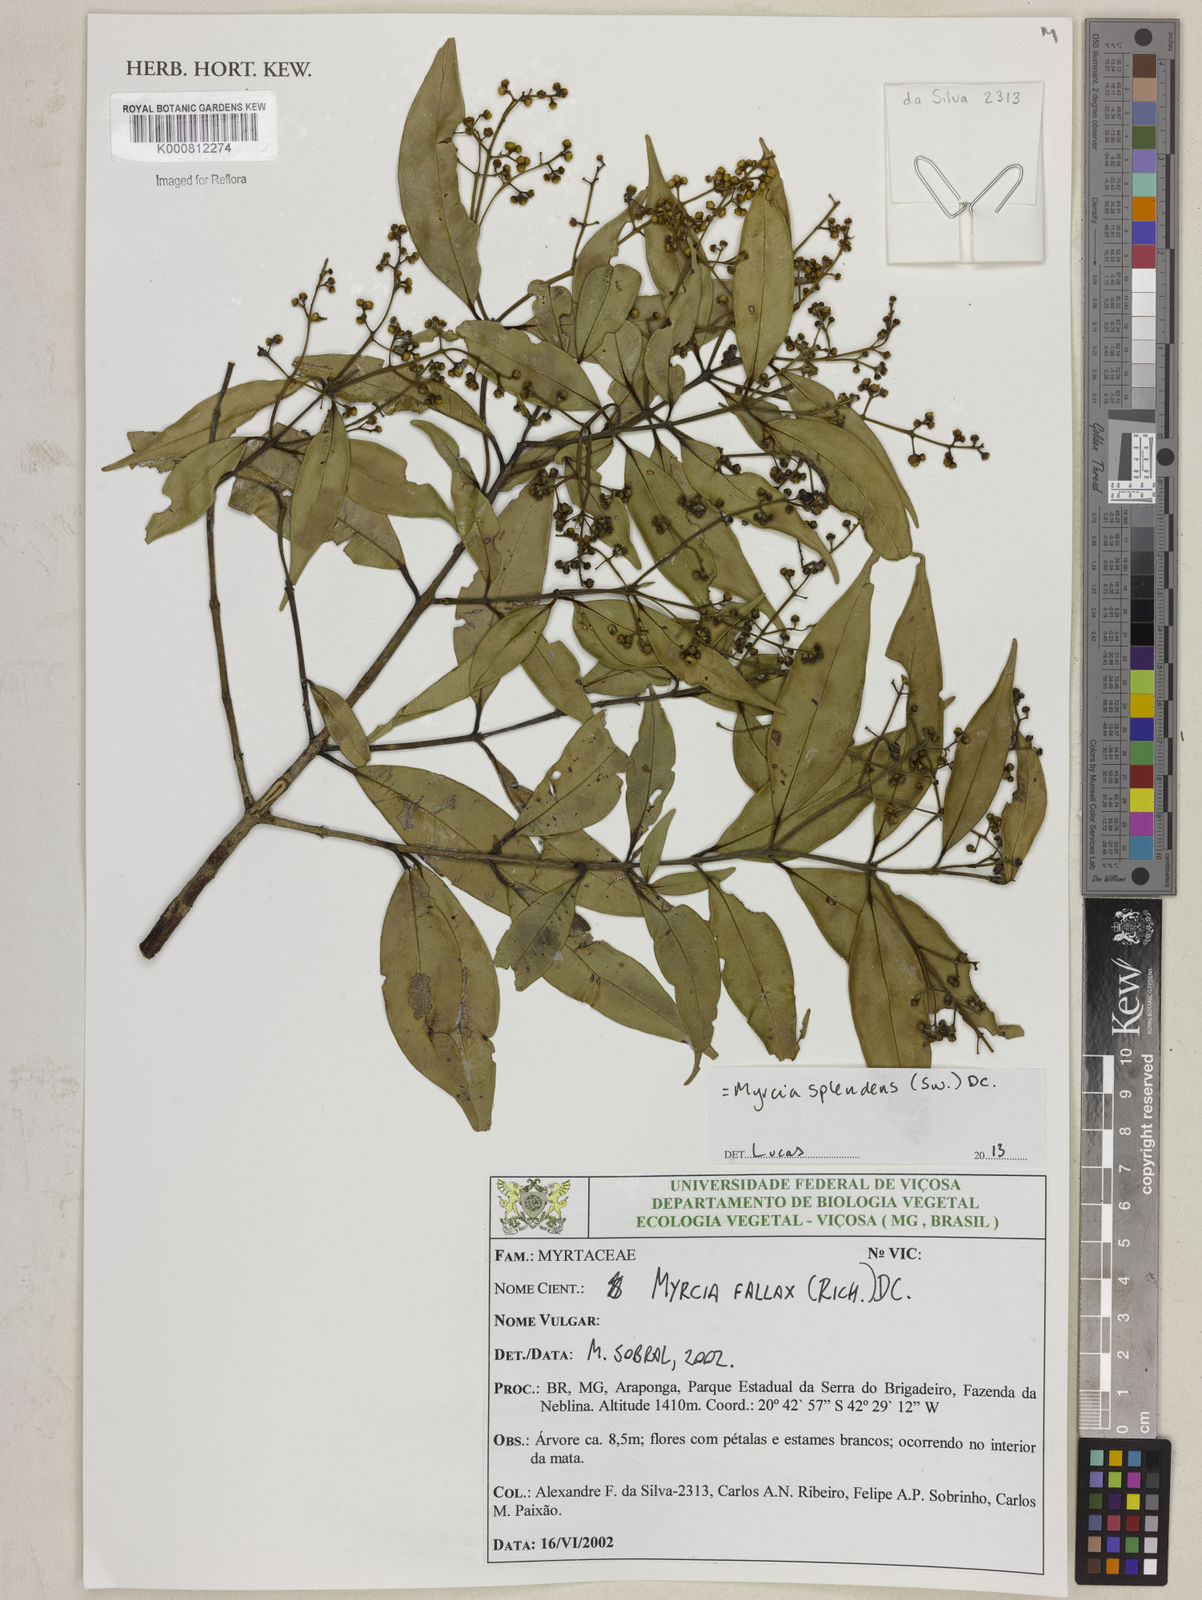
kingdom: Plantae
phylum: Tracheophyta
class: Magnoliopsida
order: Myrtales
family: Myrtaceae
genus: Myrcia
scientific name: Myrcia splendens
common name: Surinam cherry
